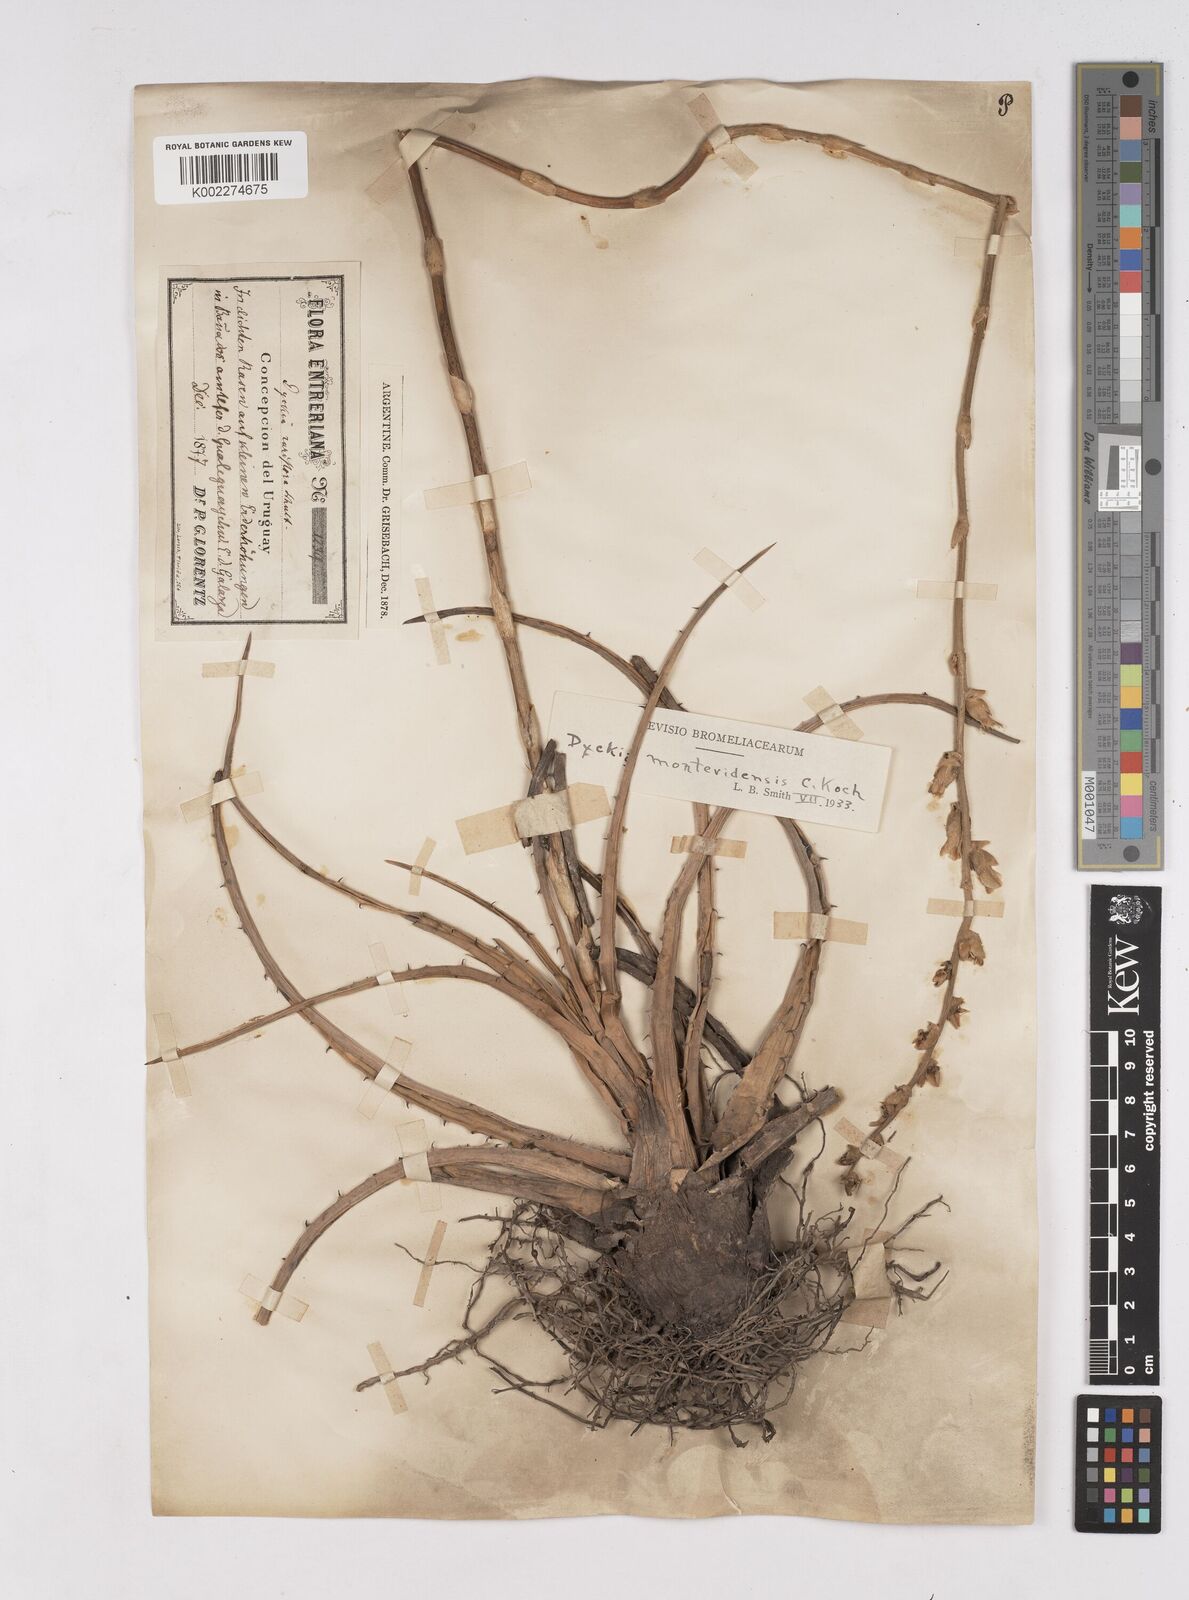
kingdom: Plantae
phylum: Tracheophyta
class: Liliopsida
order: Poales
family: Bromeliaceae
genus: Dyckia
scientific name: Dyckia remotiflora
